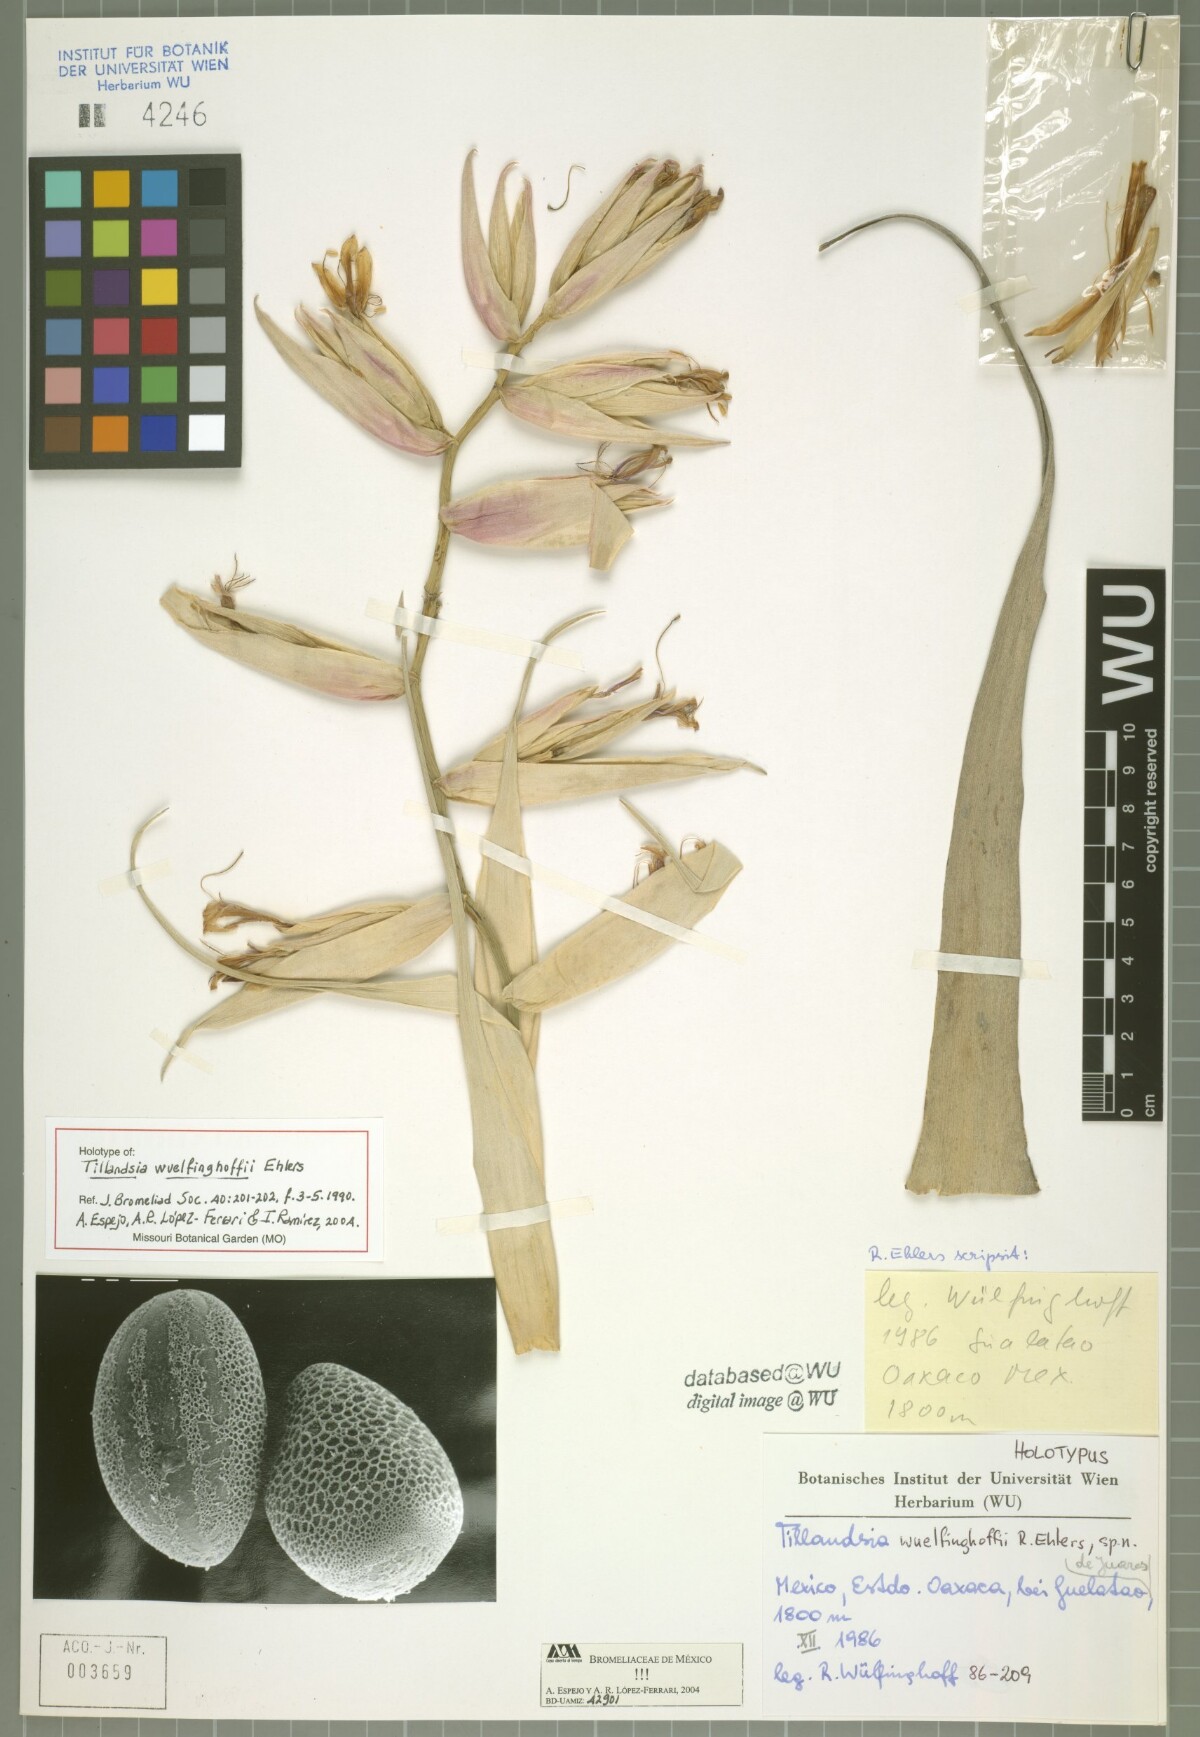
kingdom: Plantae
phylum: Tracheophyta
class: Liliopsida
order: Poales
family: Bromeliaceae
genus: Tillandsia
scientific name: Tillandsia wuelfinghoffii
